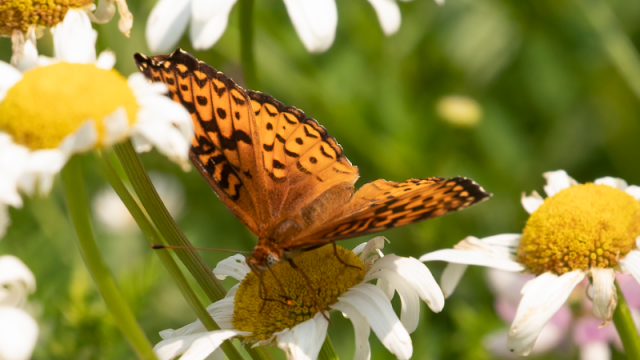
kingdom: Animalia
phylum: Arthropoda
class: Insecta
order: Lepidoptera
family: Nymphalidae
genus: Speyeria
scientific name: Speyeria atlantis
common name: Atlantis Fritillary
